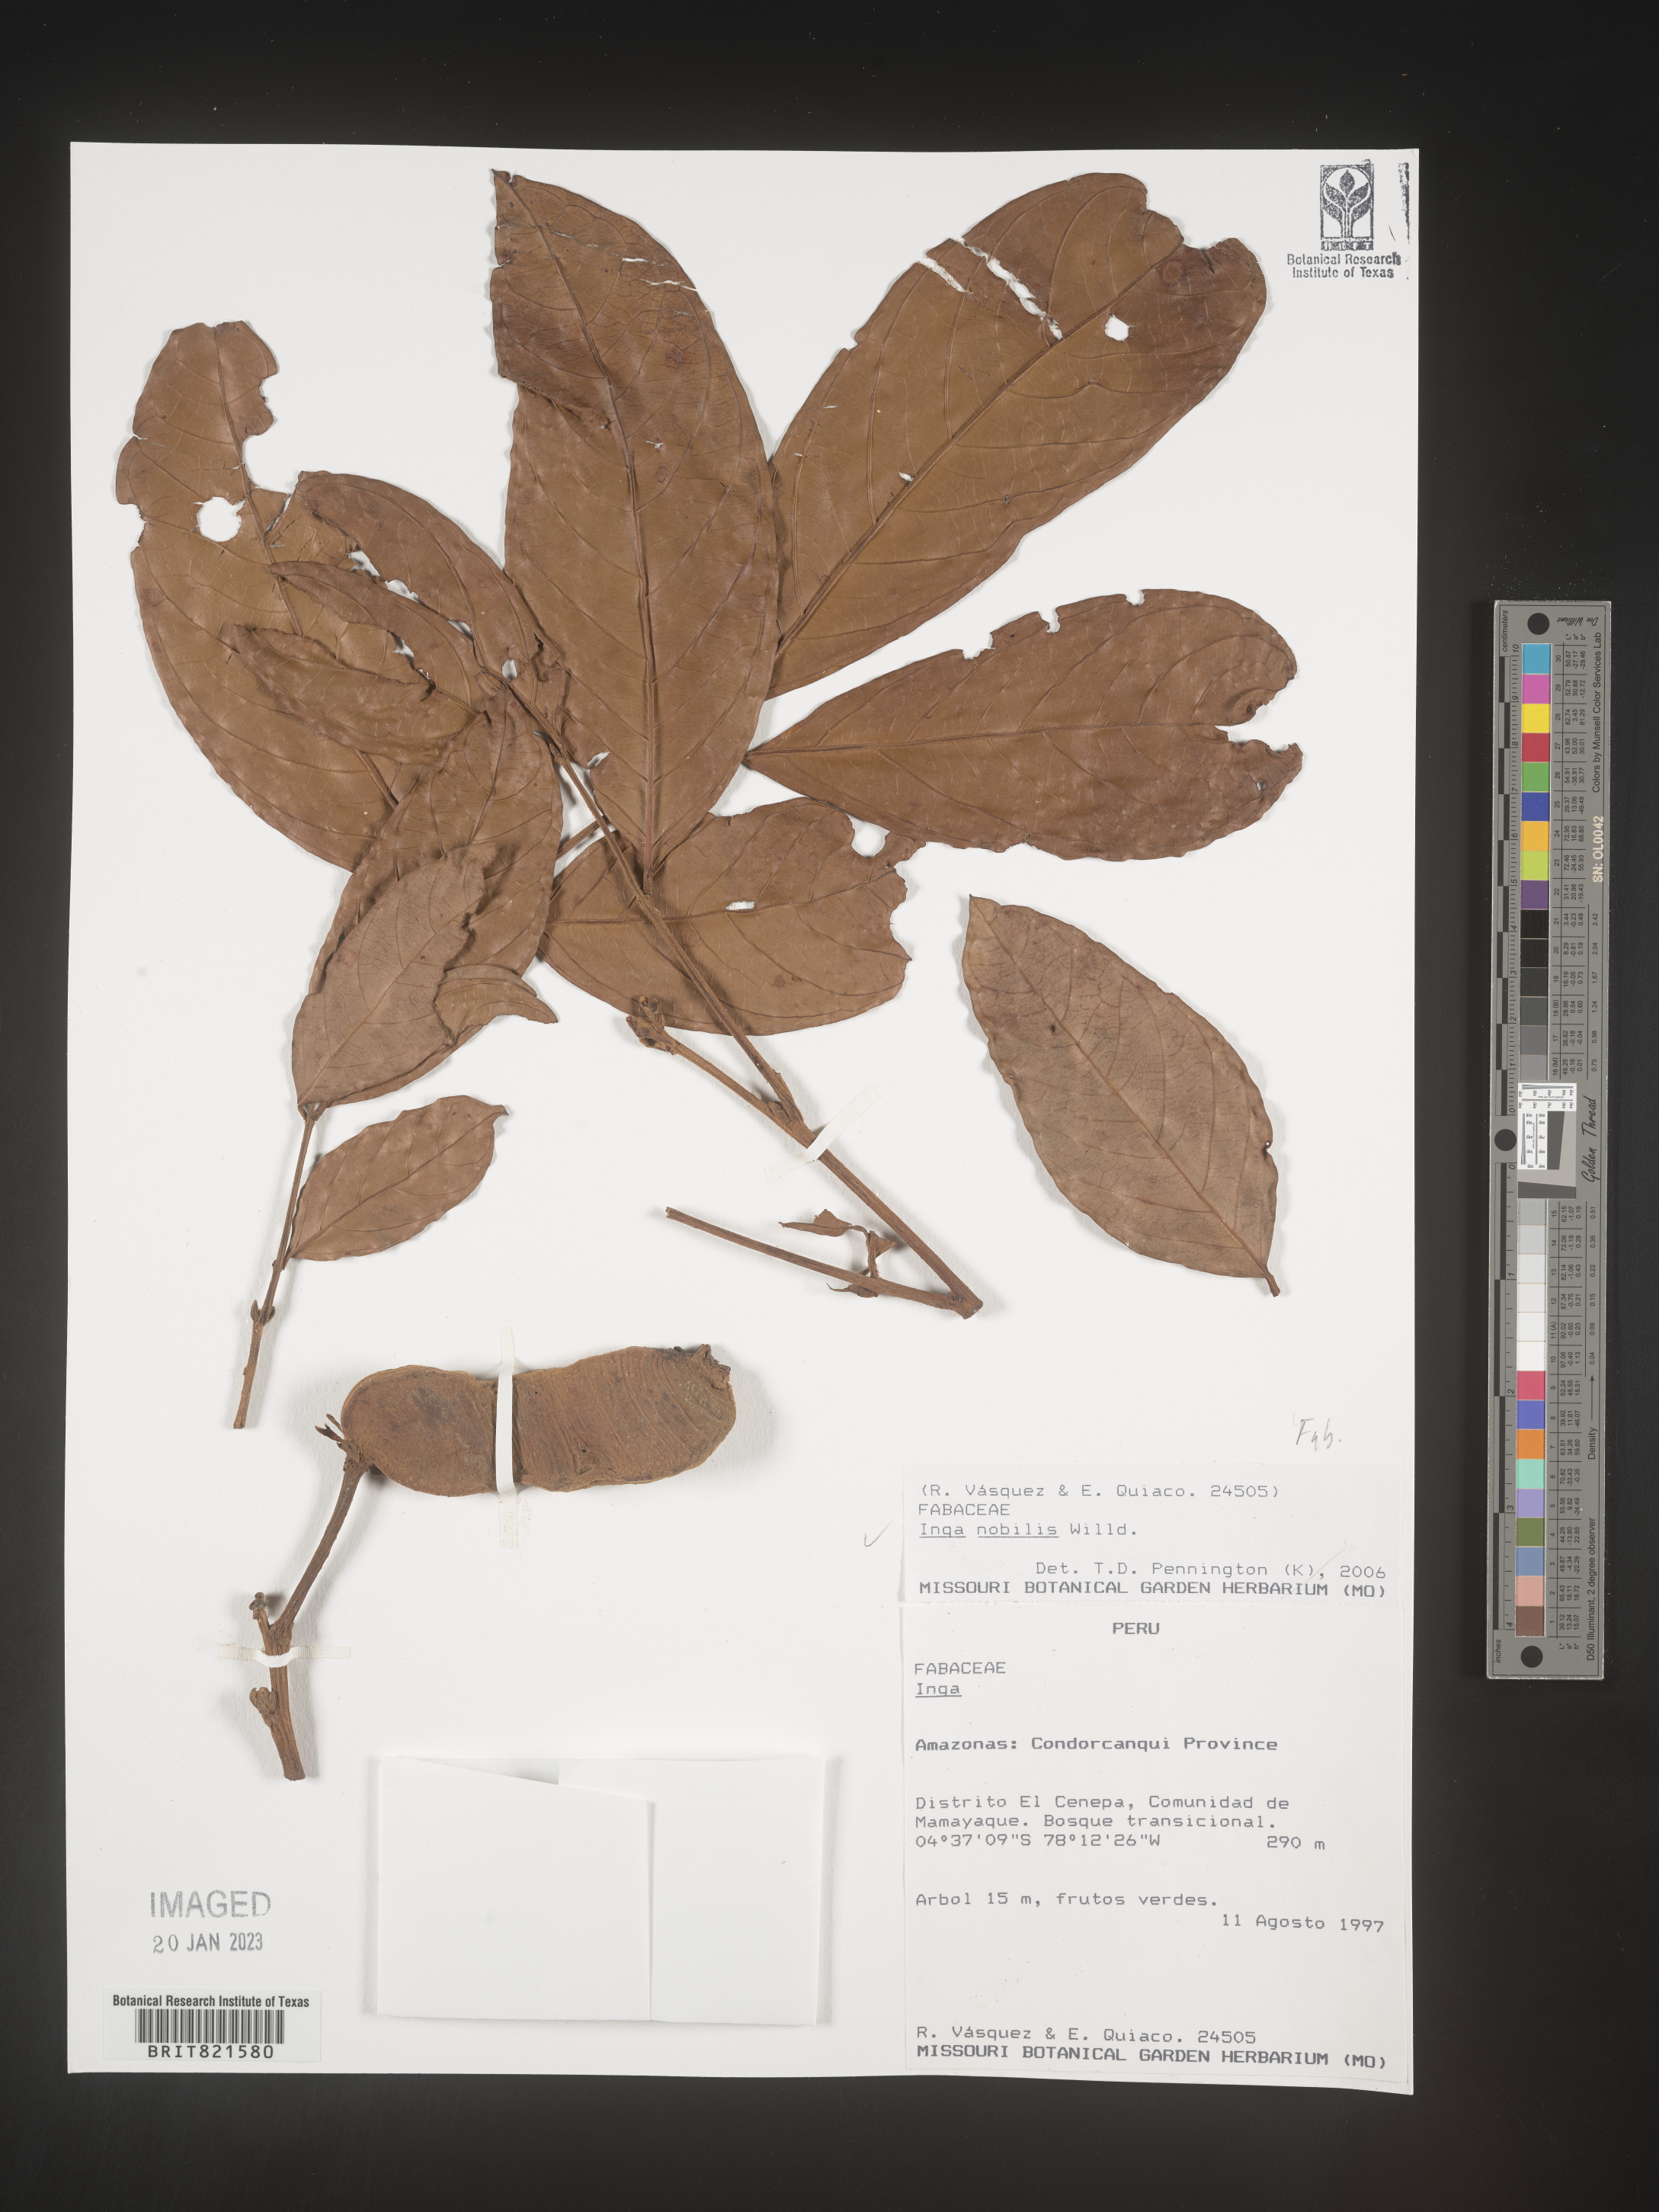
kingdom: Plantae
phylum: Tracheophyta
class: Magnoliopsida
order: Fabales
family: Fabaceae
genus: Inga
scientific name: Inga
